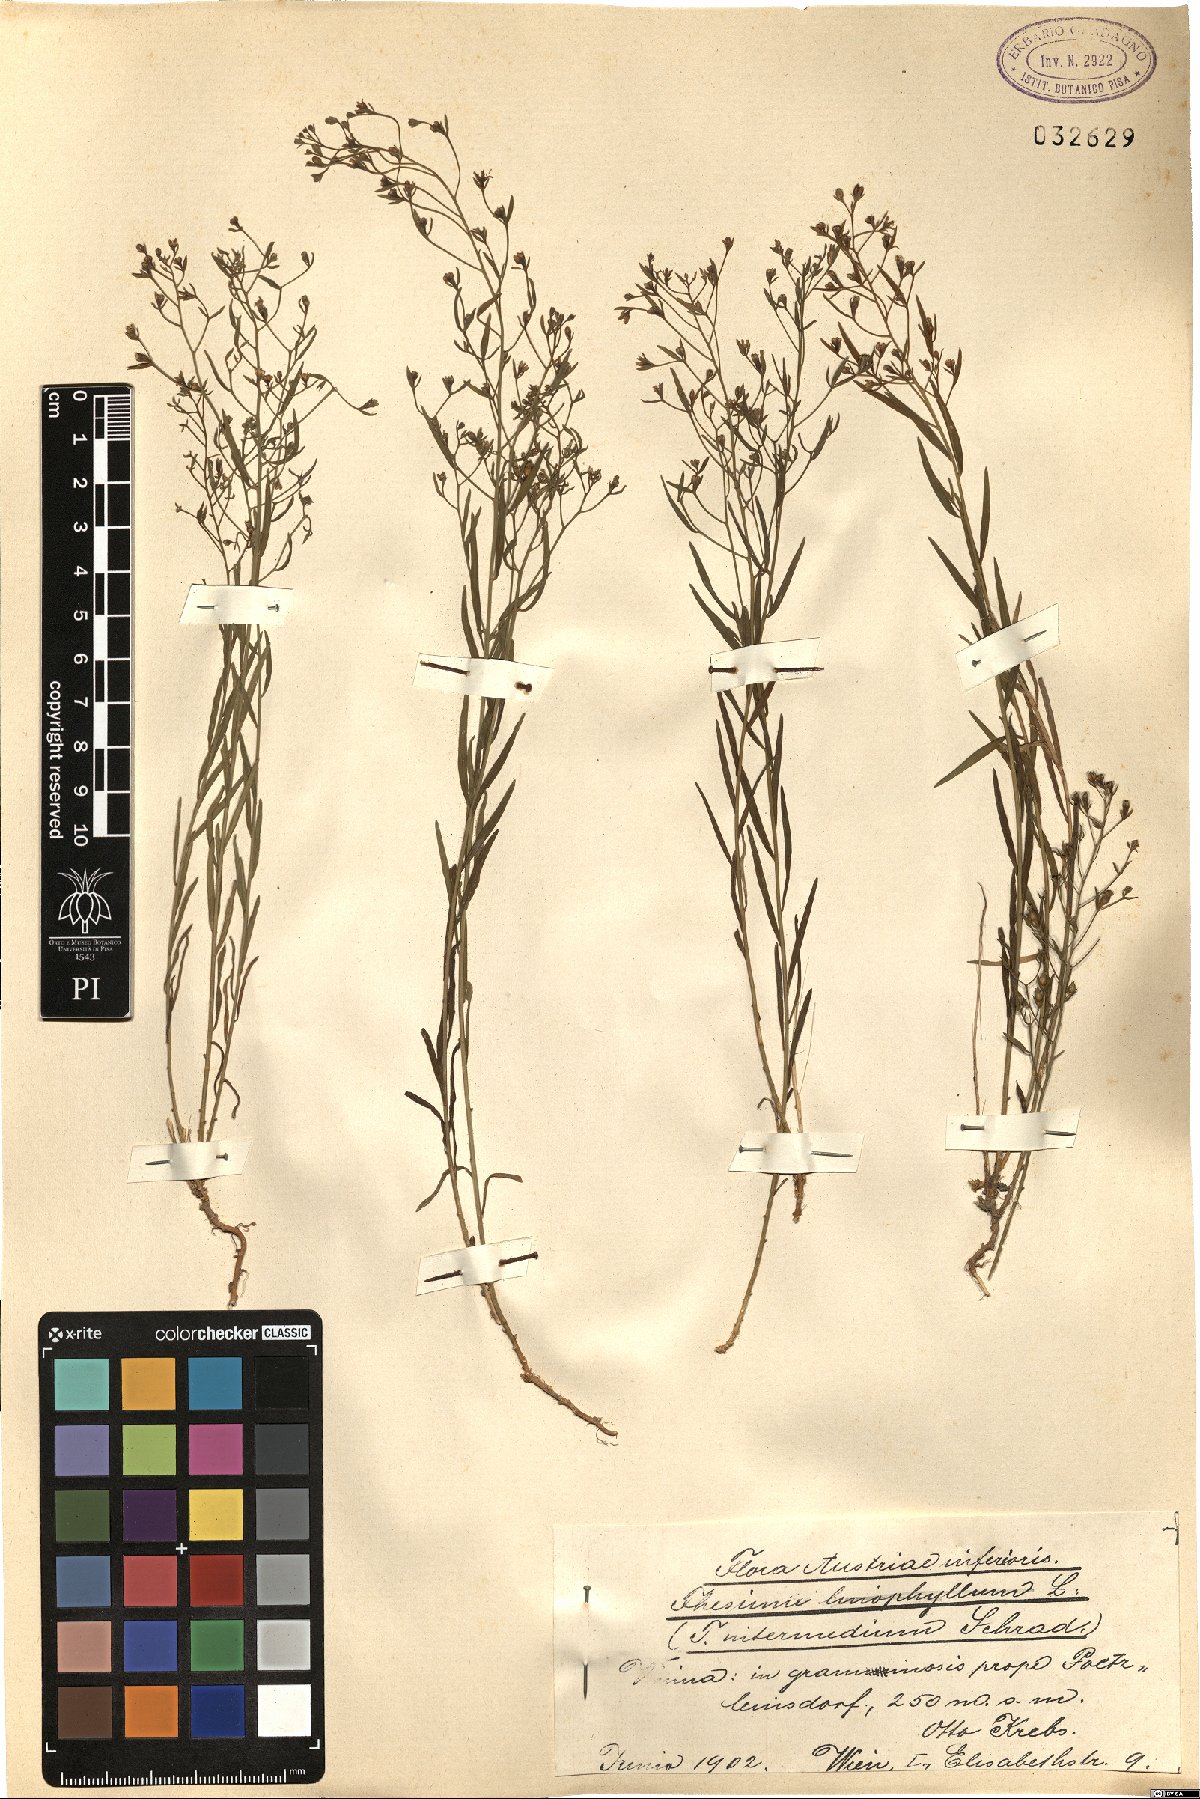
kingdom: Plantae
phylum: Tracheophyta
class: Magnoliopsida
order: Santalales
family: Thesiaceae
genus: Thesium
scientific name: Thesium linophyllon
